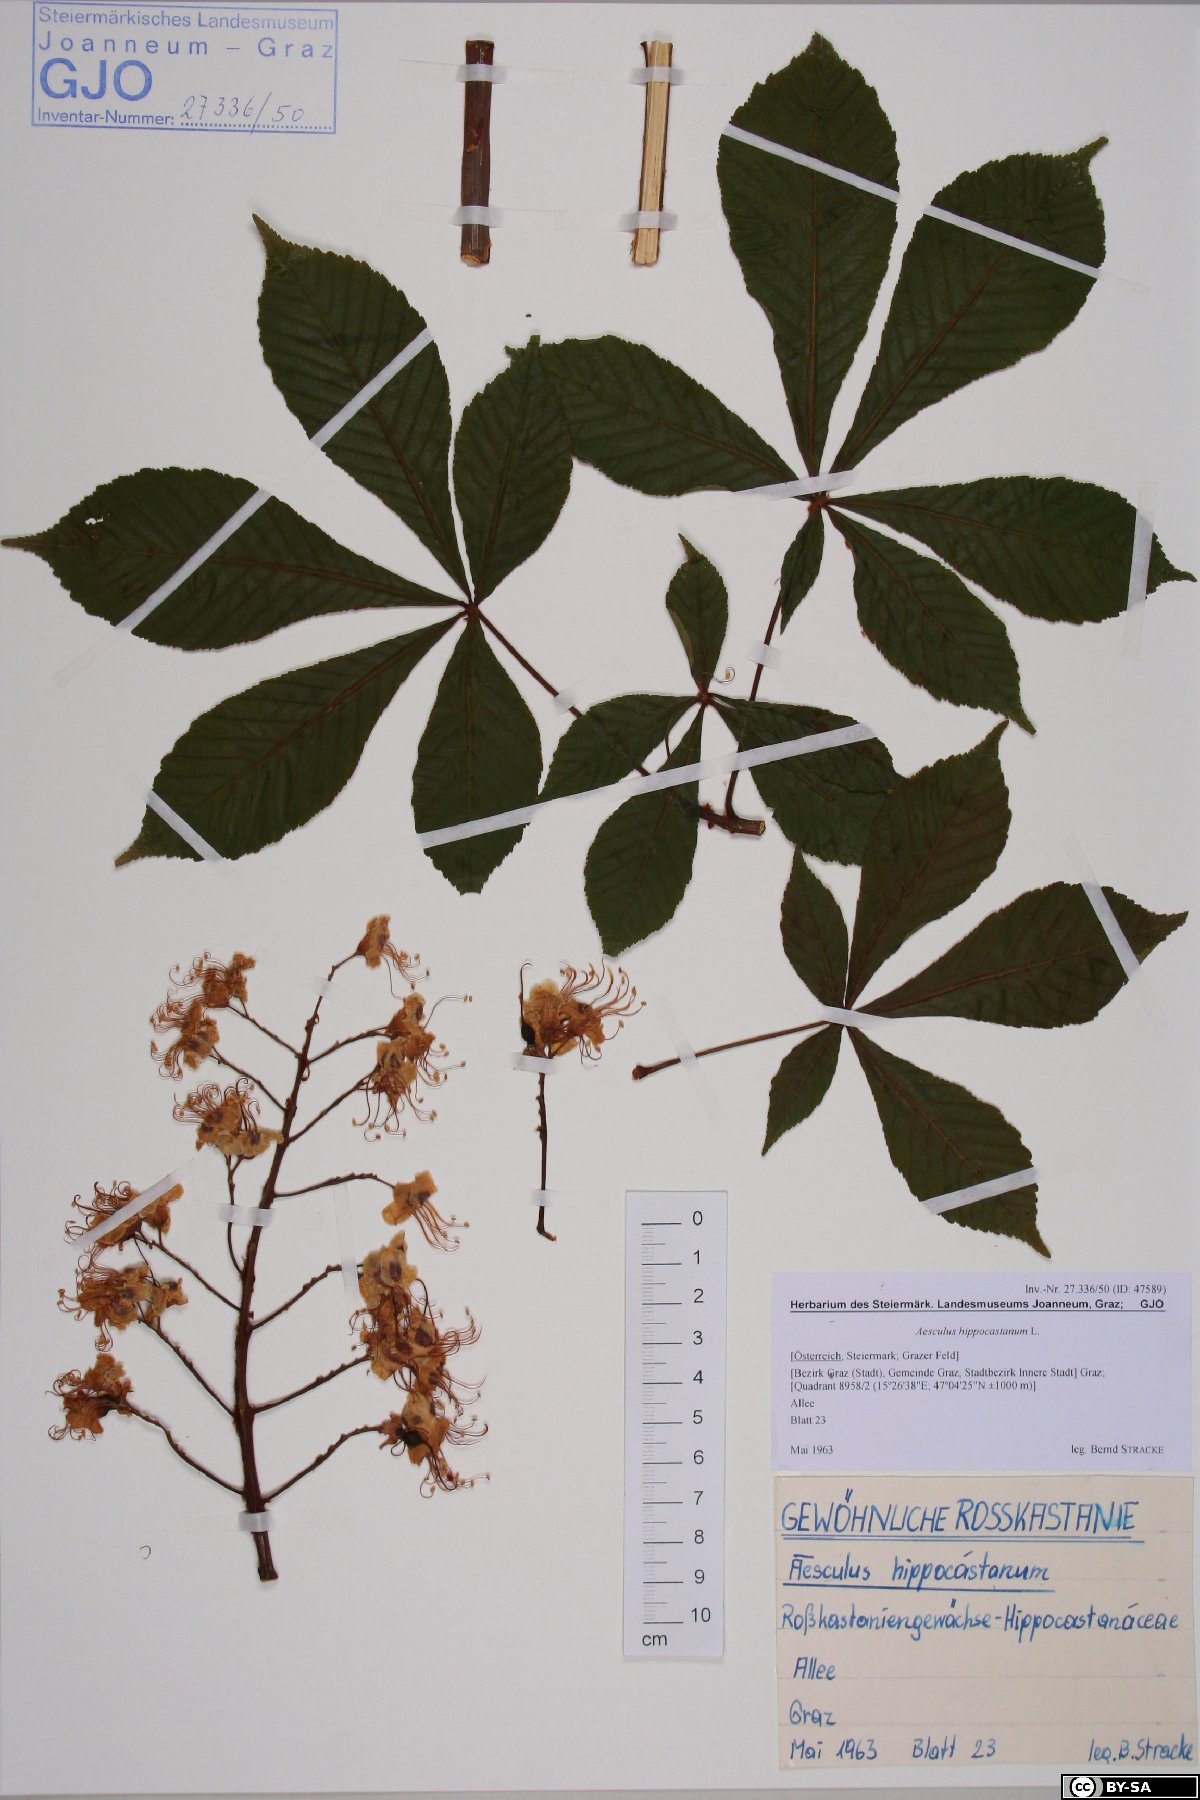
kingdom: Plantae
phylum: Tracheophyta
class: Magnoliopsida
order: Sapindales
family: Sapindaceae
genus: Aesculus
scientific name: Aesculus hippocastanum
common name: Horse-chestnut
